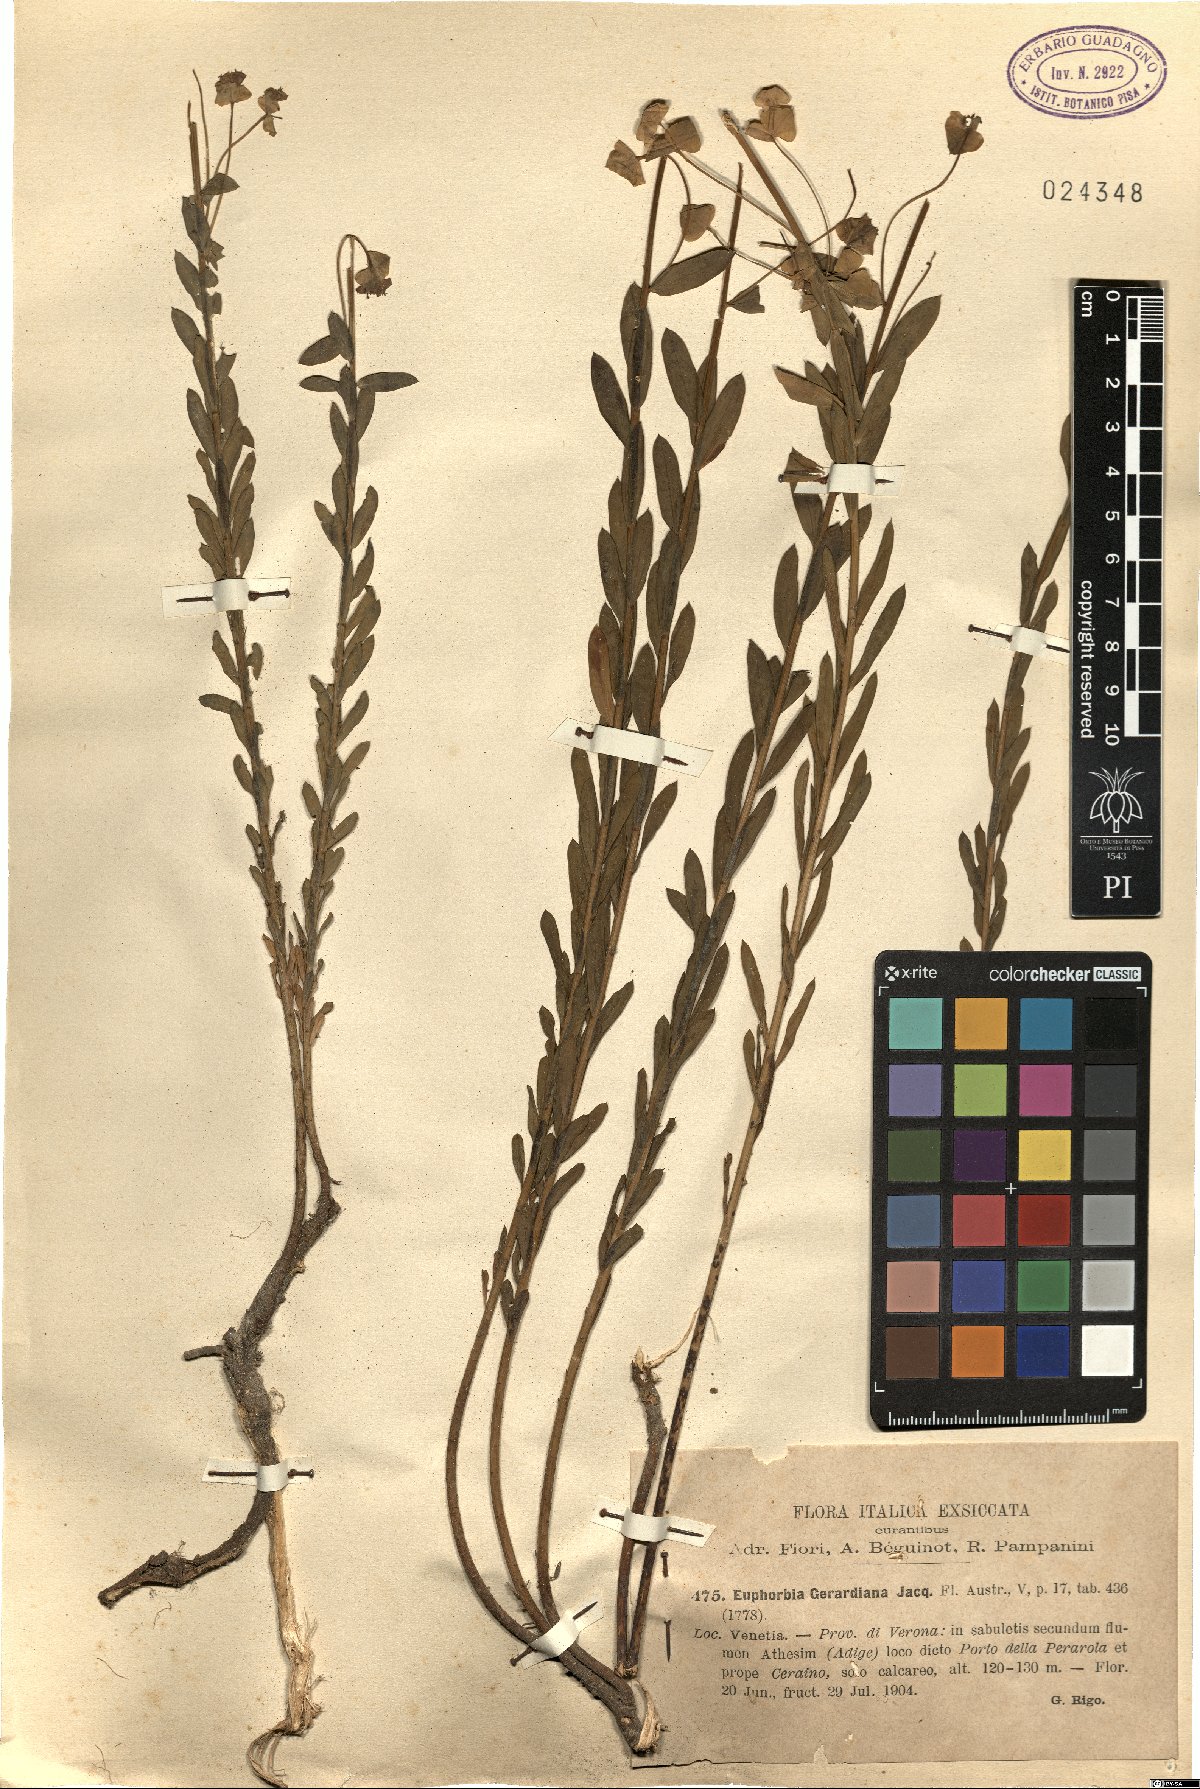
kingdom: Plantae
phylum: Tracheophyta
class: Magnoliopsida
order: Malpighiales
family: Euphorbiaceae
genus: Euphorbia
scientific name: Euphorbia seguieriana
